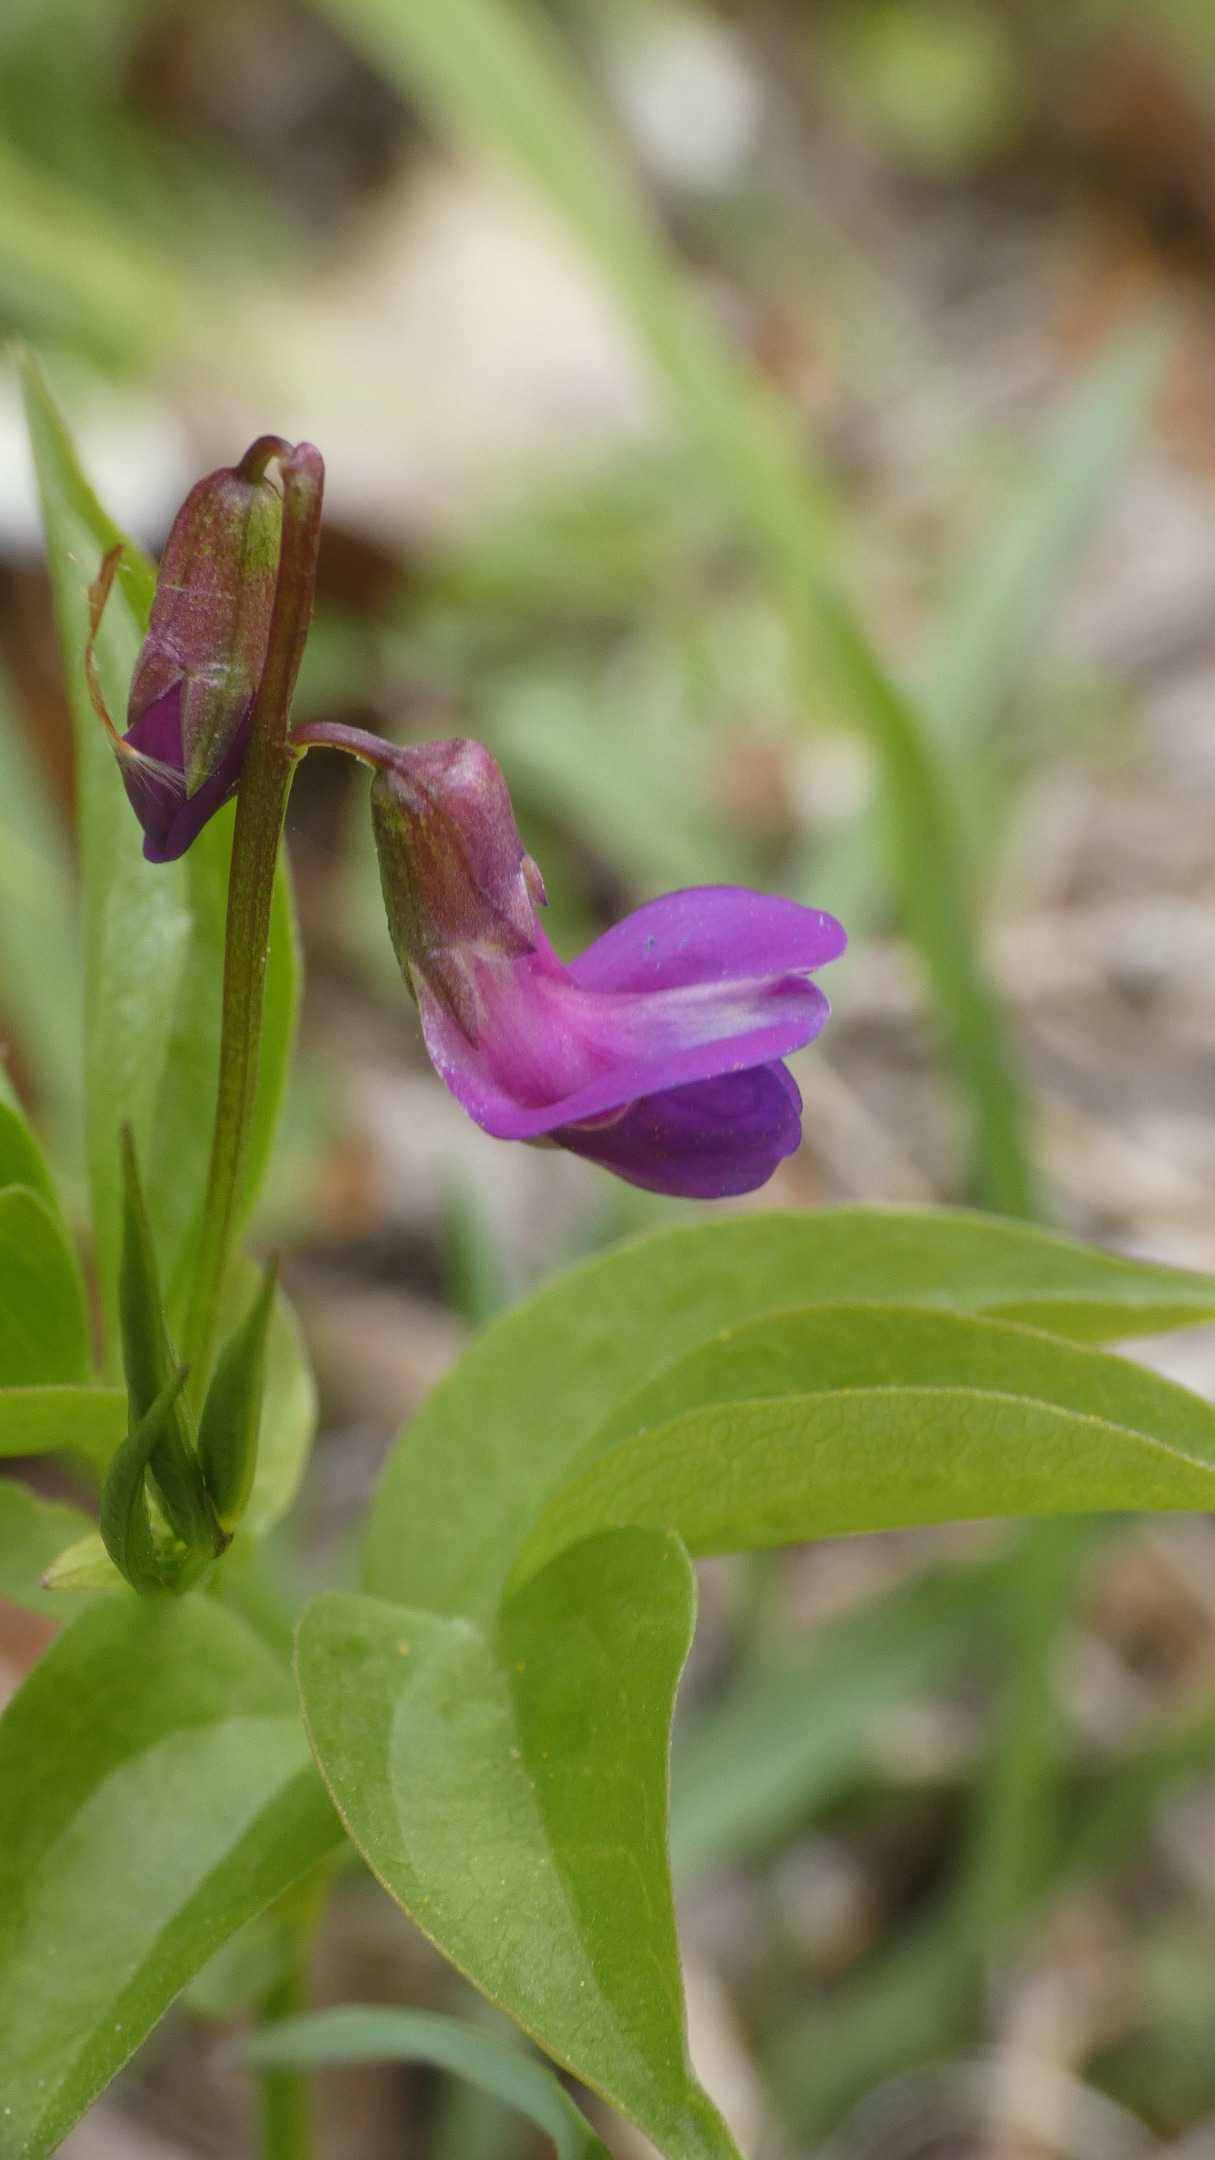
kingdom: Plantae
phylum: Tracheophyta
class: Magnoliopsida
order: Fabales
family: Fabaceae
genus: Lathyrus
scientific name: Lathyrus vernus
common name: Vår-fladbælg
